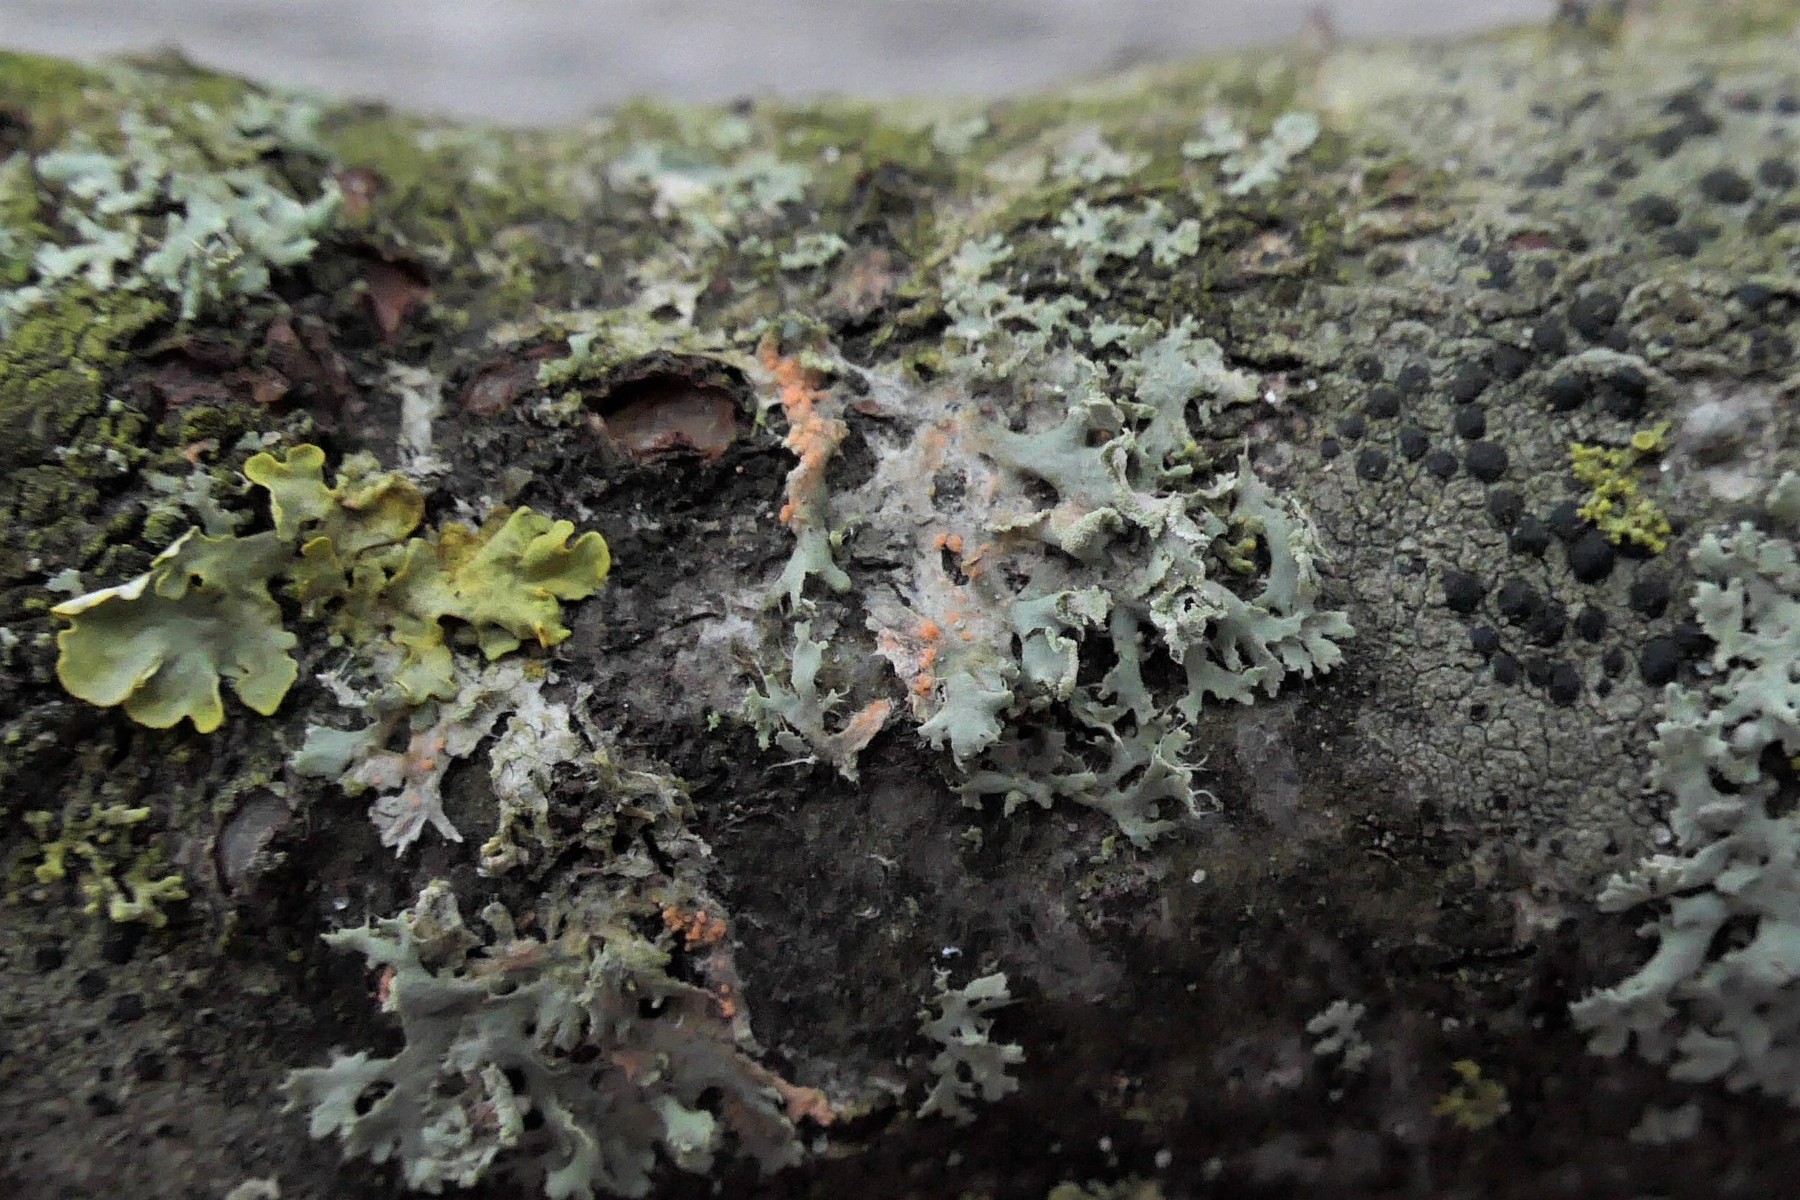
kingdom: Fungi
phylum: Basidiomycota
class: Agaricomycetes
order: Corticiales
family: Corticiaceae
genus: Erythricium
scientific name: Erythricium aurantiacum
